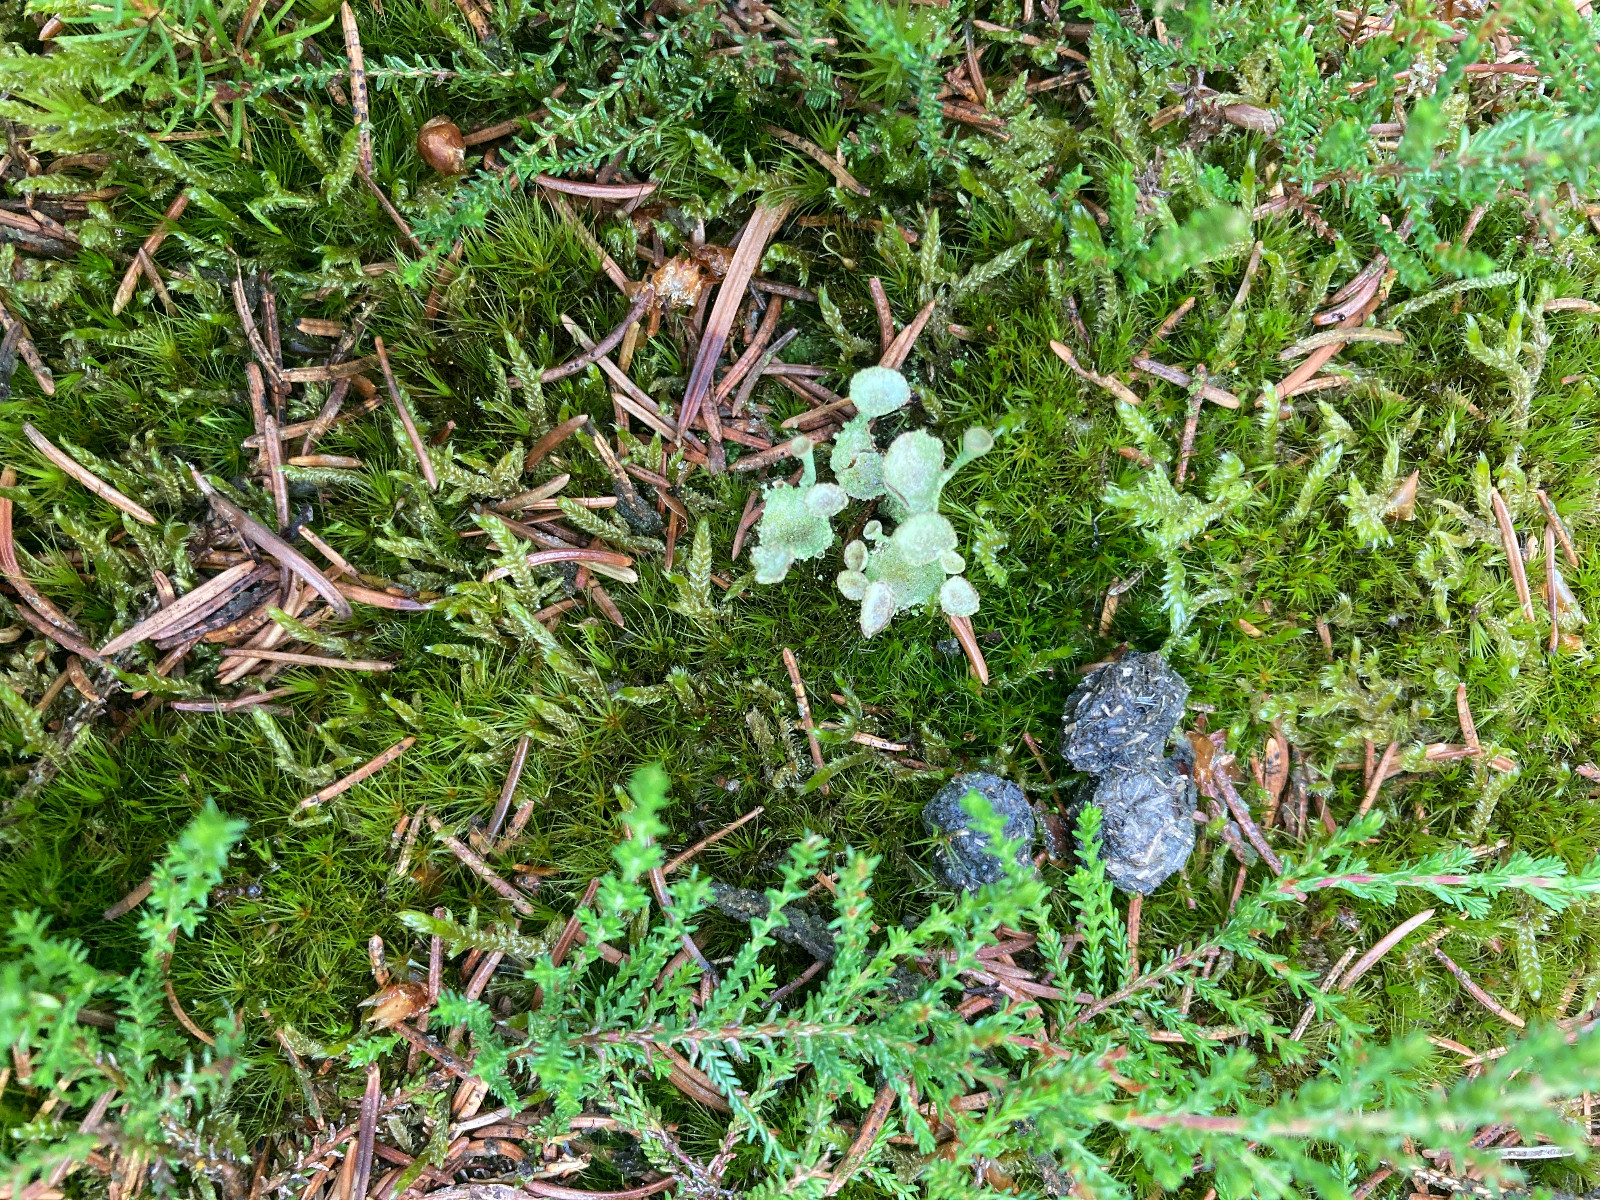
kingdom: Fungi
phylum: Ascomycota
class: Lecanoromycetes
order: Lecanorales
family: Cladoniaceae
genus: Cladonia
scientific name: Cladonia
